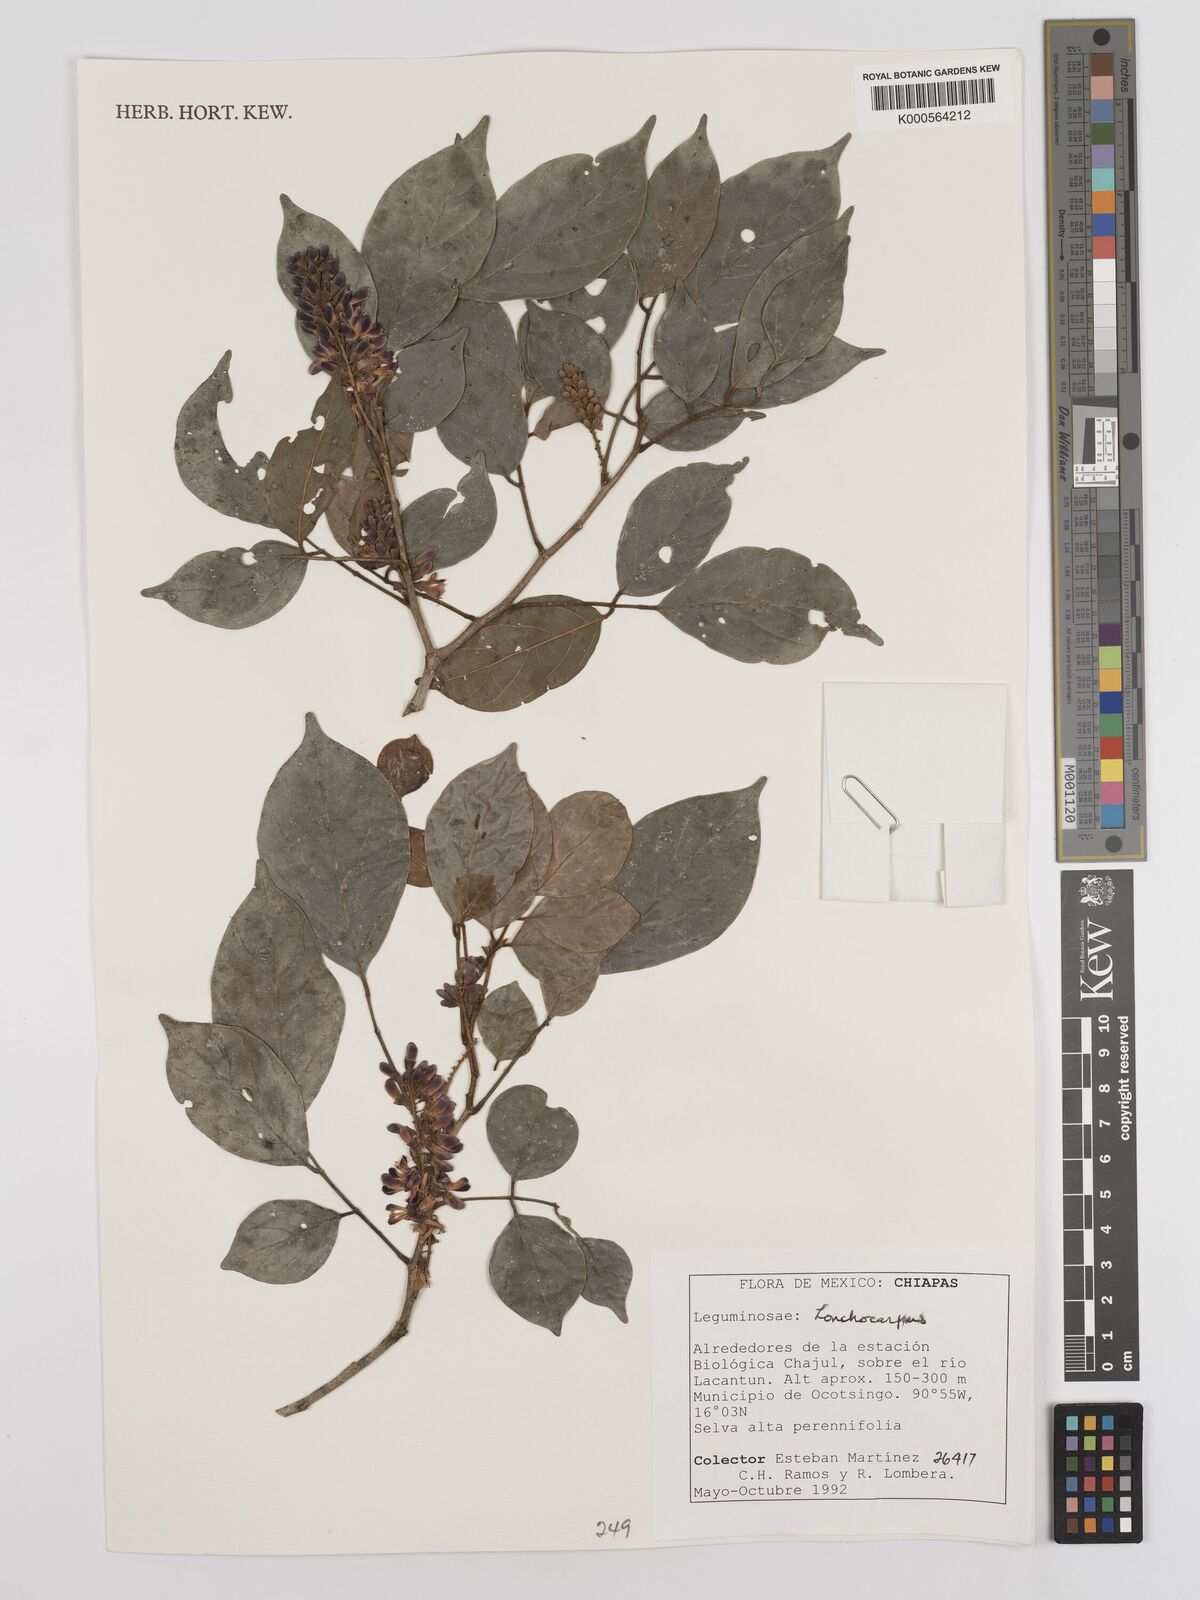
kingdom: Plantae
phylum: Tracheophyta
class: Magnoliopsida
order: Fabales
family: Fabaceae
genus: Lonchocarpus
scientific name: Lonchocarpus
